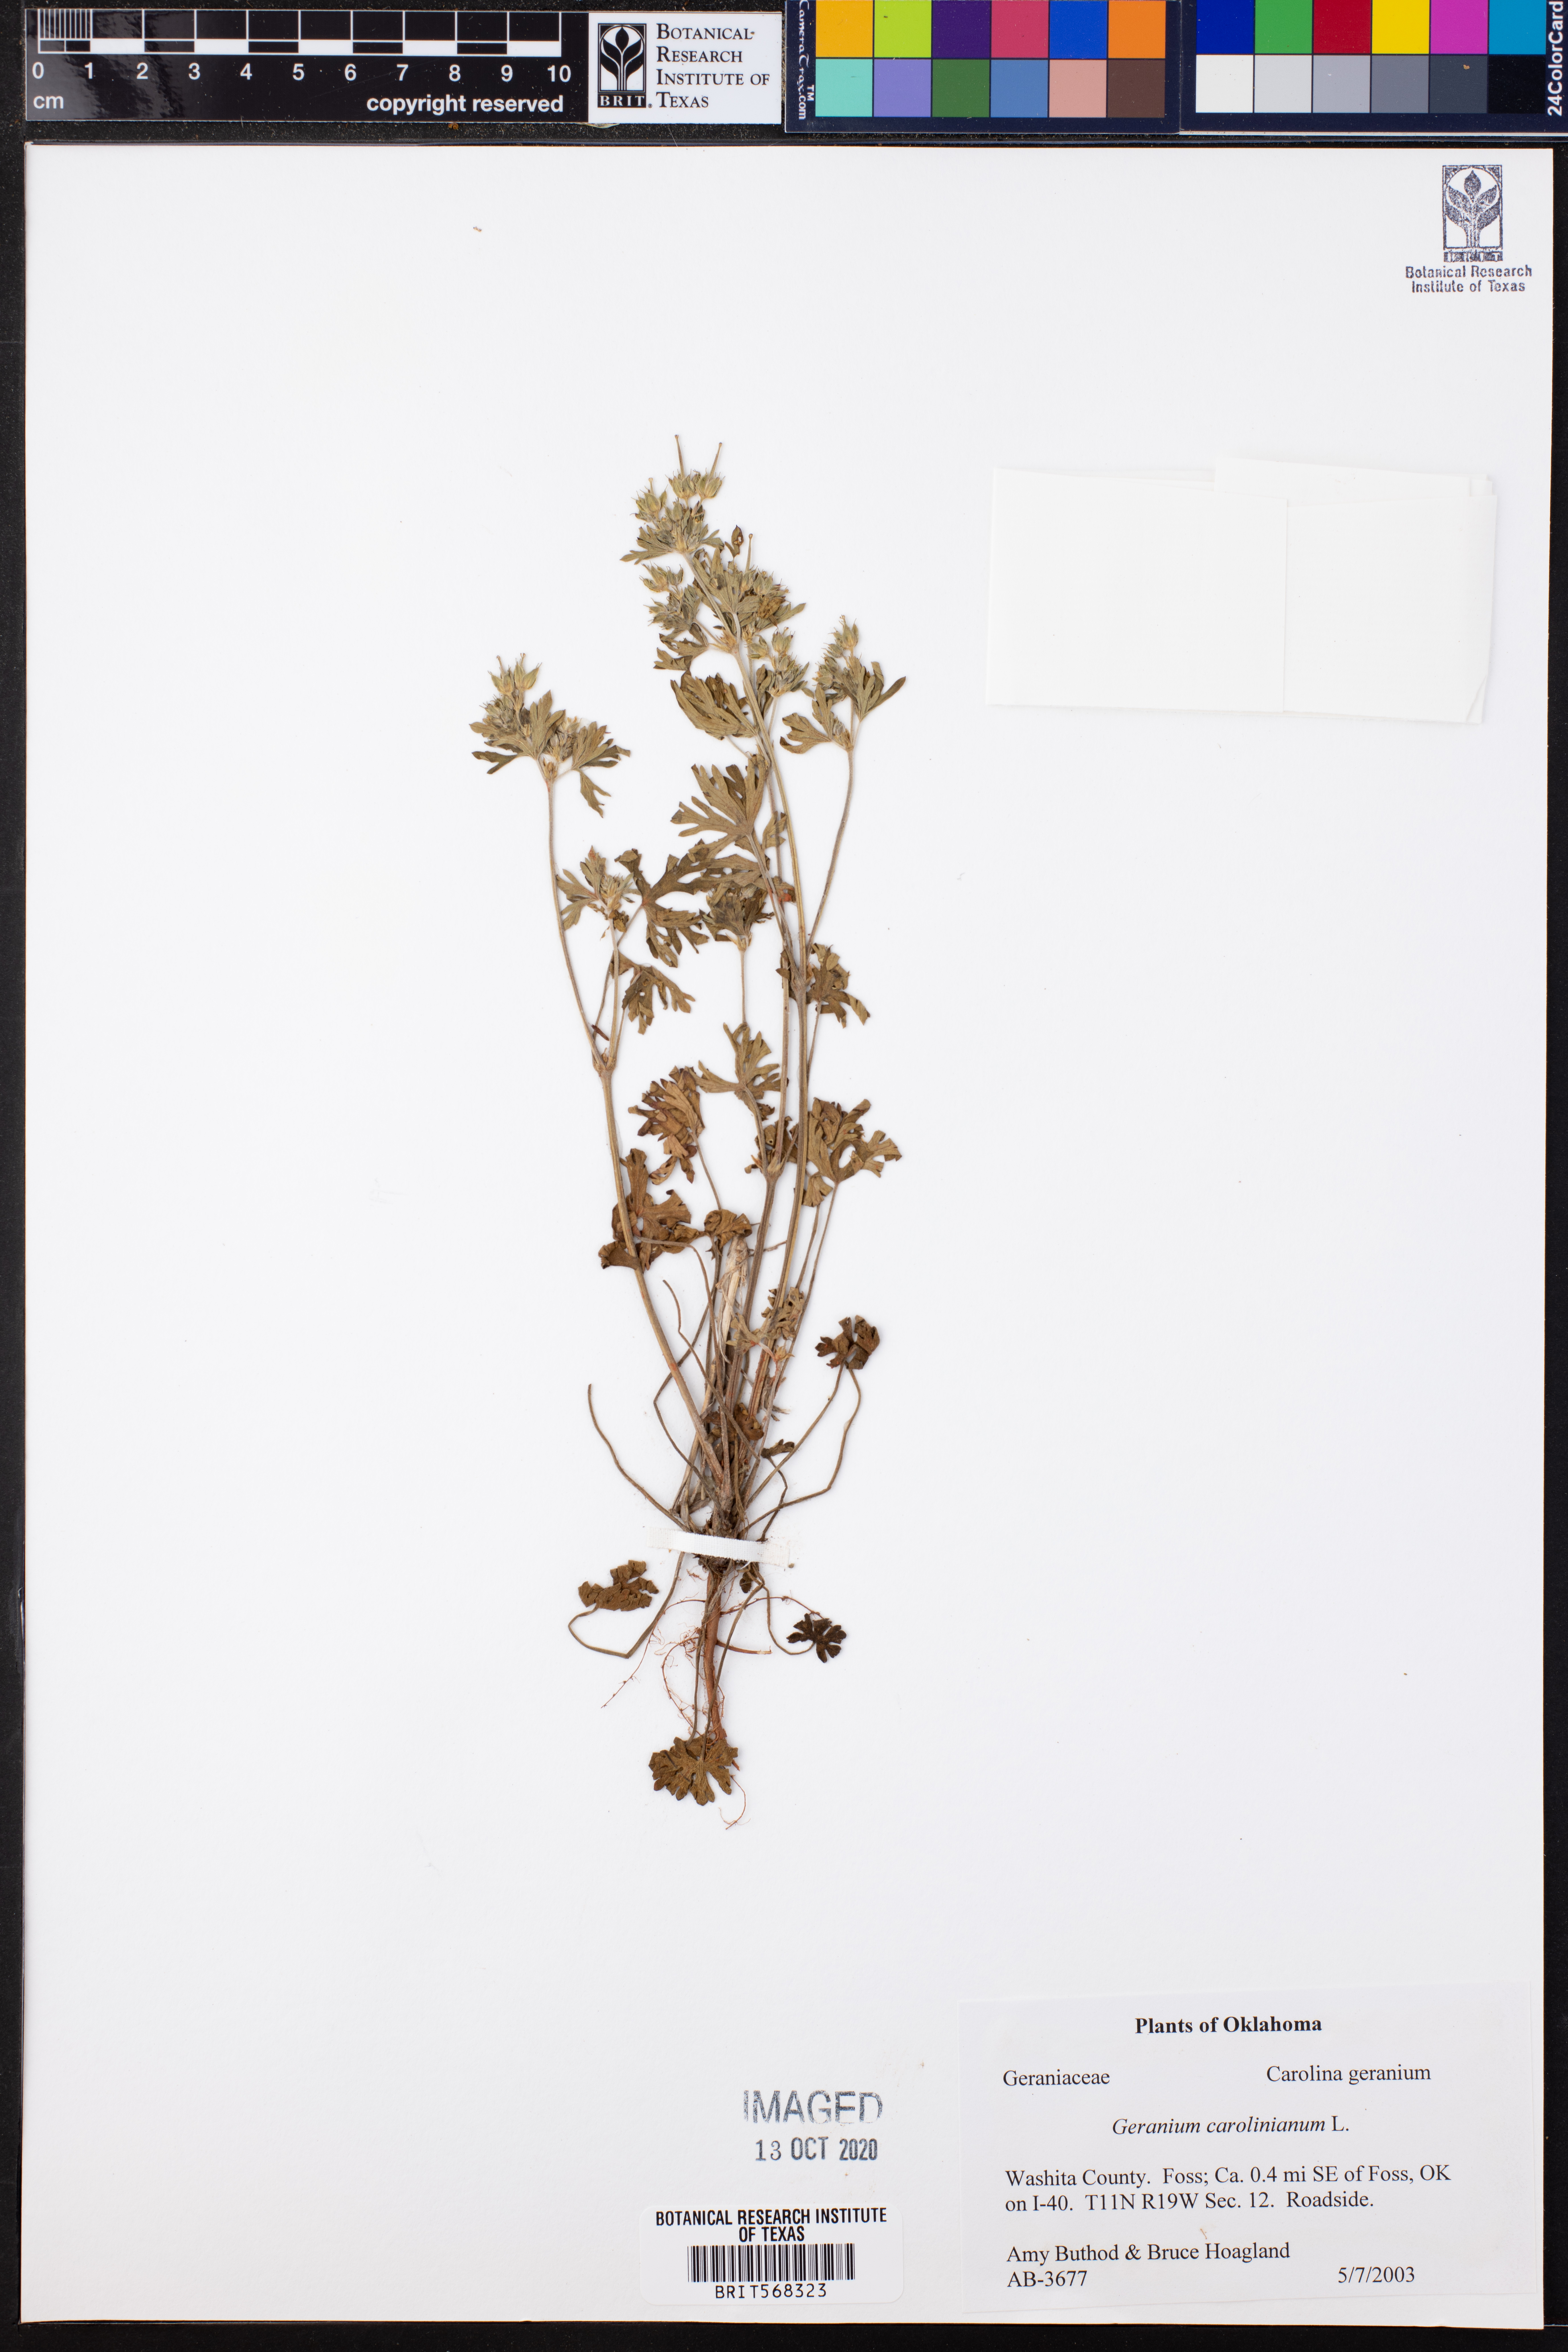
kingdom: Plantae
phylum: Tracheophyta
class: Magnoliopsida
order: Geraniales
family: Geraniaceae
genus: Geranium
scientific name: Geranium carolinianum
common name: Carolina crane's-bill
